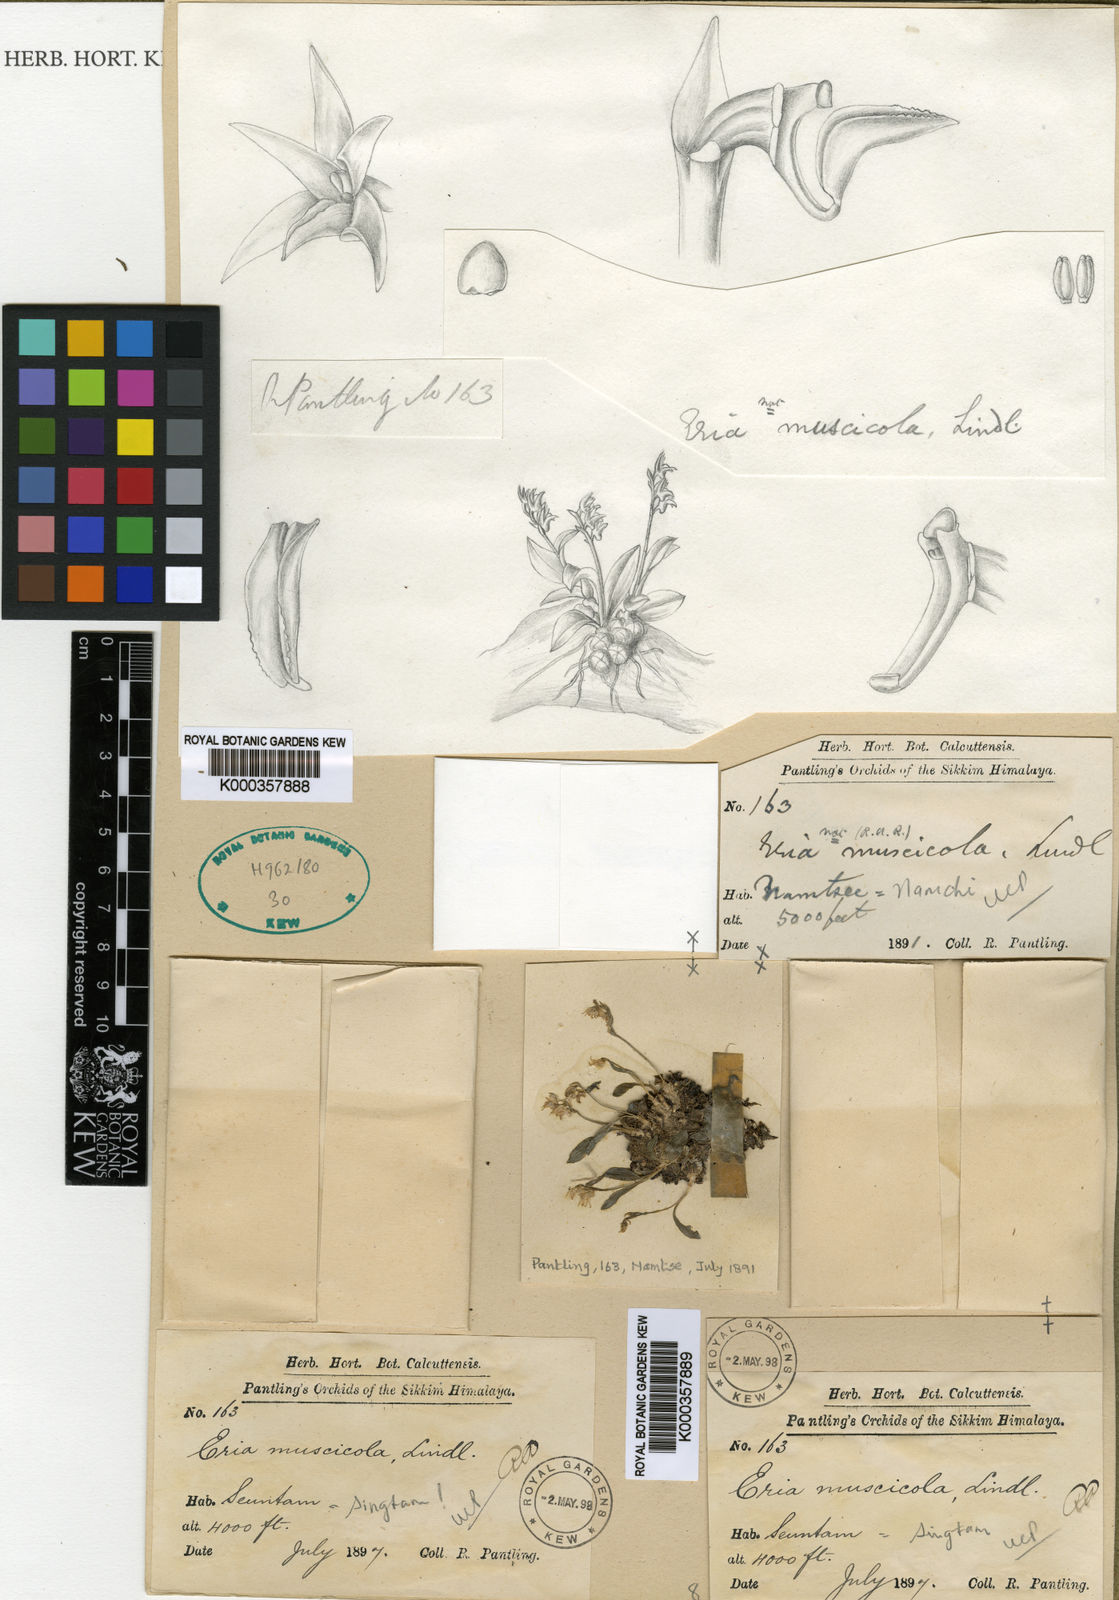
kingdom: Plantae
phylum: Tracheophyta
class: Liliopsida
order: Asparagales
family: Orchidaceae
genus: Porpax
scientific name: Porpax parviflorum
